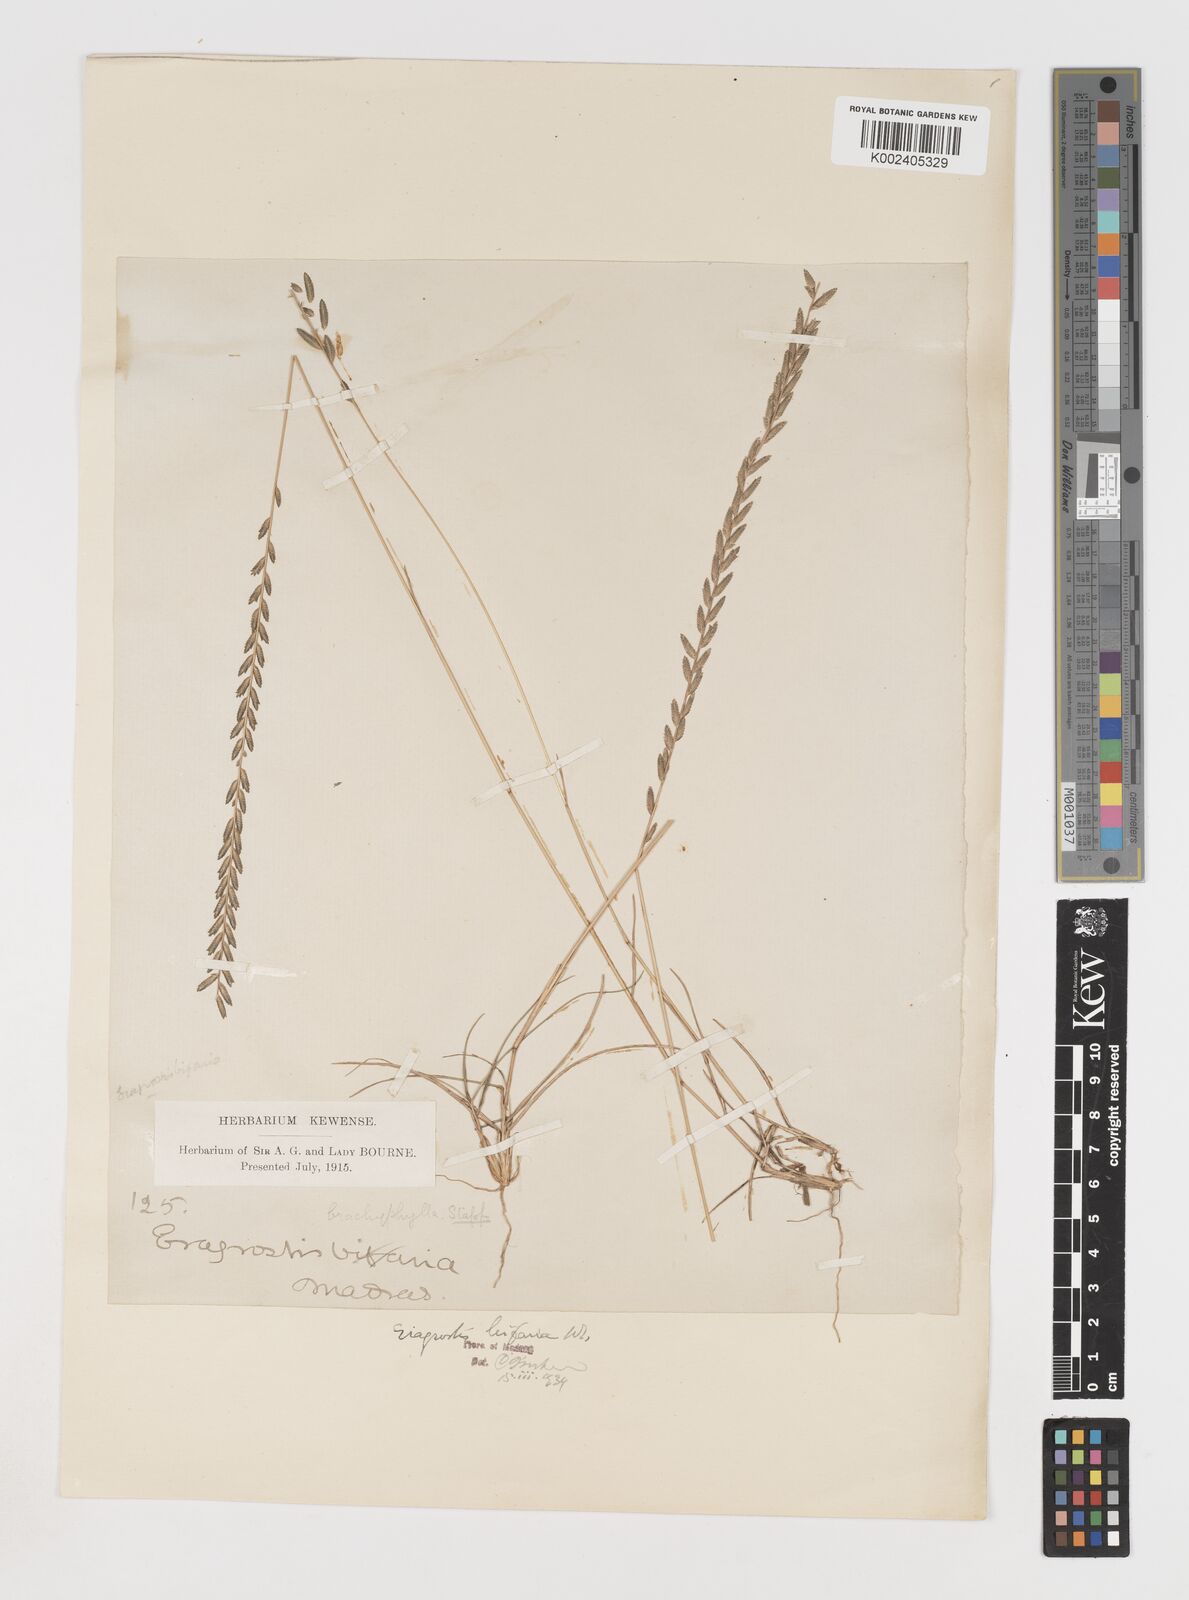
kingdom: Plantae
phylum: Tracheophyta
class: Liliopsida
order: Poales
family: Poaceae
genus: Eragrostiella
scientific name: Eragrostiella bifaria
